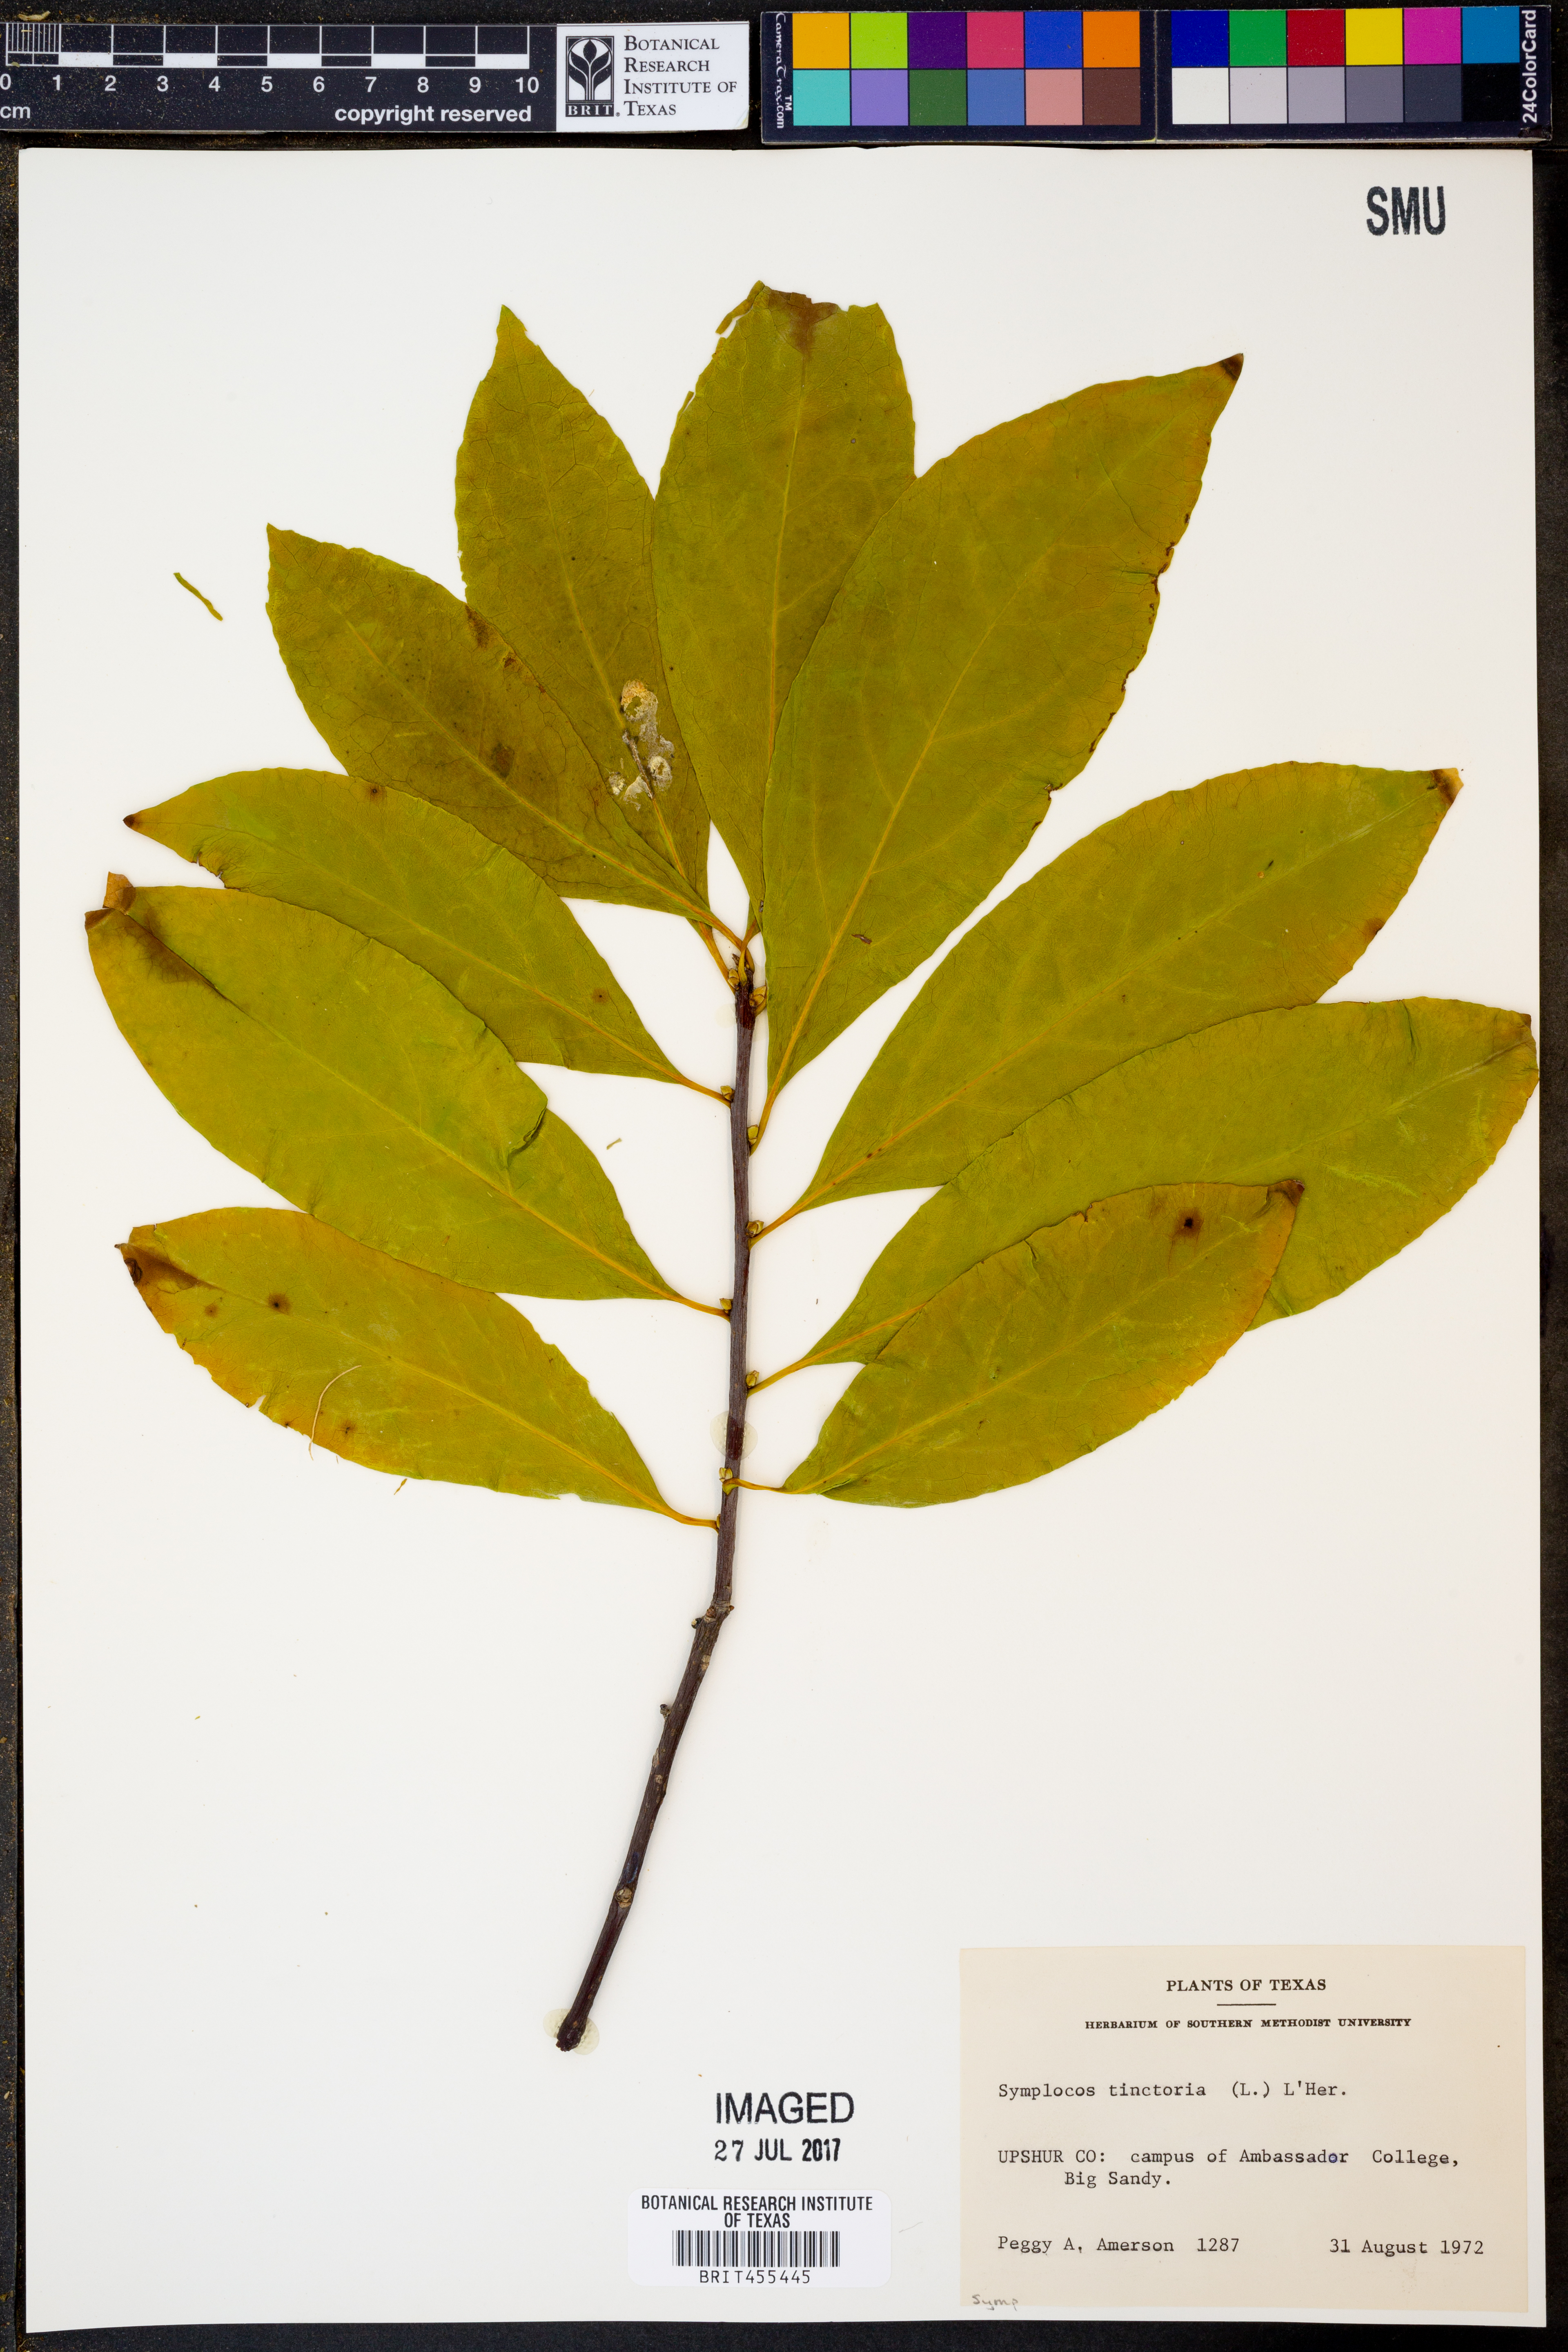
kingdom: Plantae
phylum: Tracheophyta
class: Magnoliopsida
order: Ericales
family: Symplocaceae
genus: Symplocos
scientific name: Symplocos tinctoria
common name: Horse-sugar
